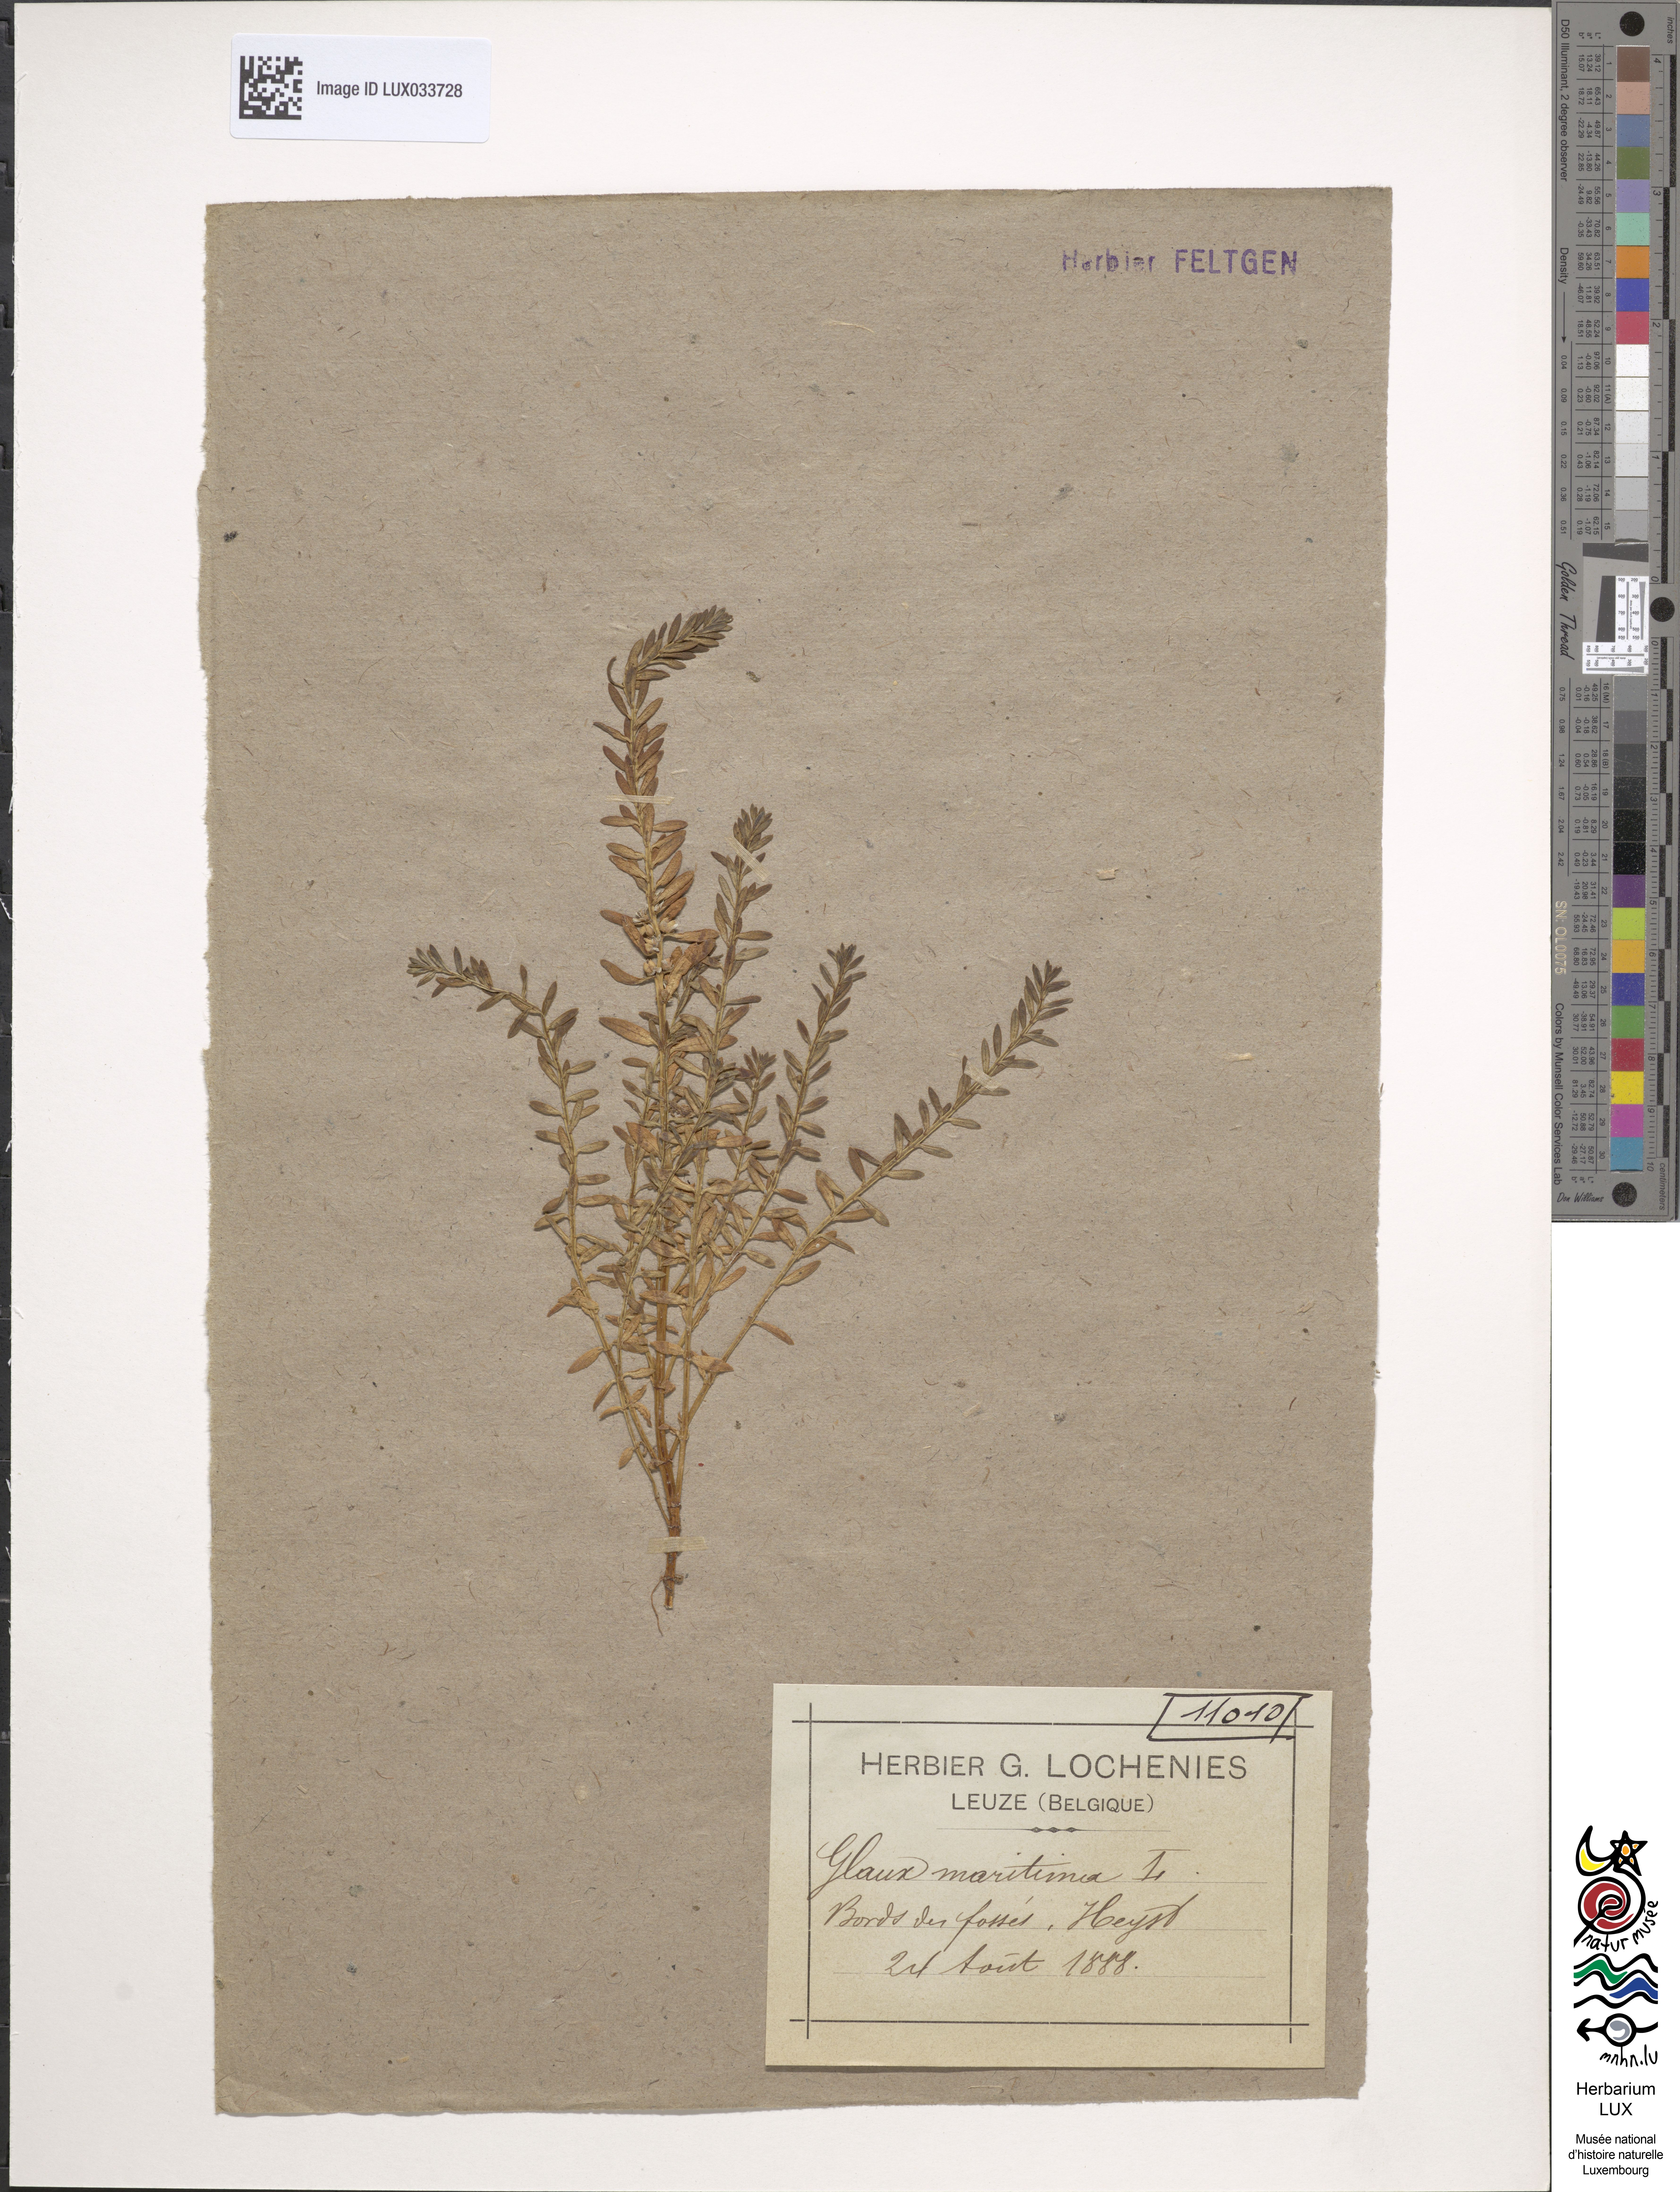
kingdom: Plantae
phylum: Tracheophyta
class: Magnoliopsida
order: Ericales
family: Primulaceae
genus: Lysimachia
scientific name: Lysimachia maritima
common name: Sea milkwort
